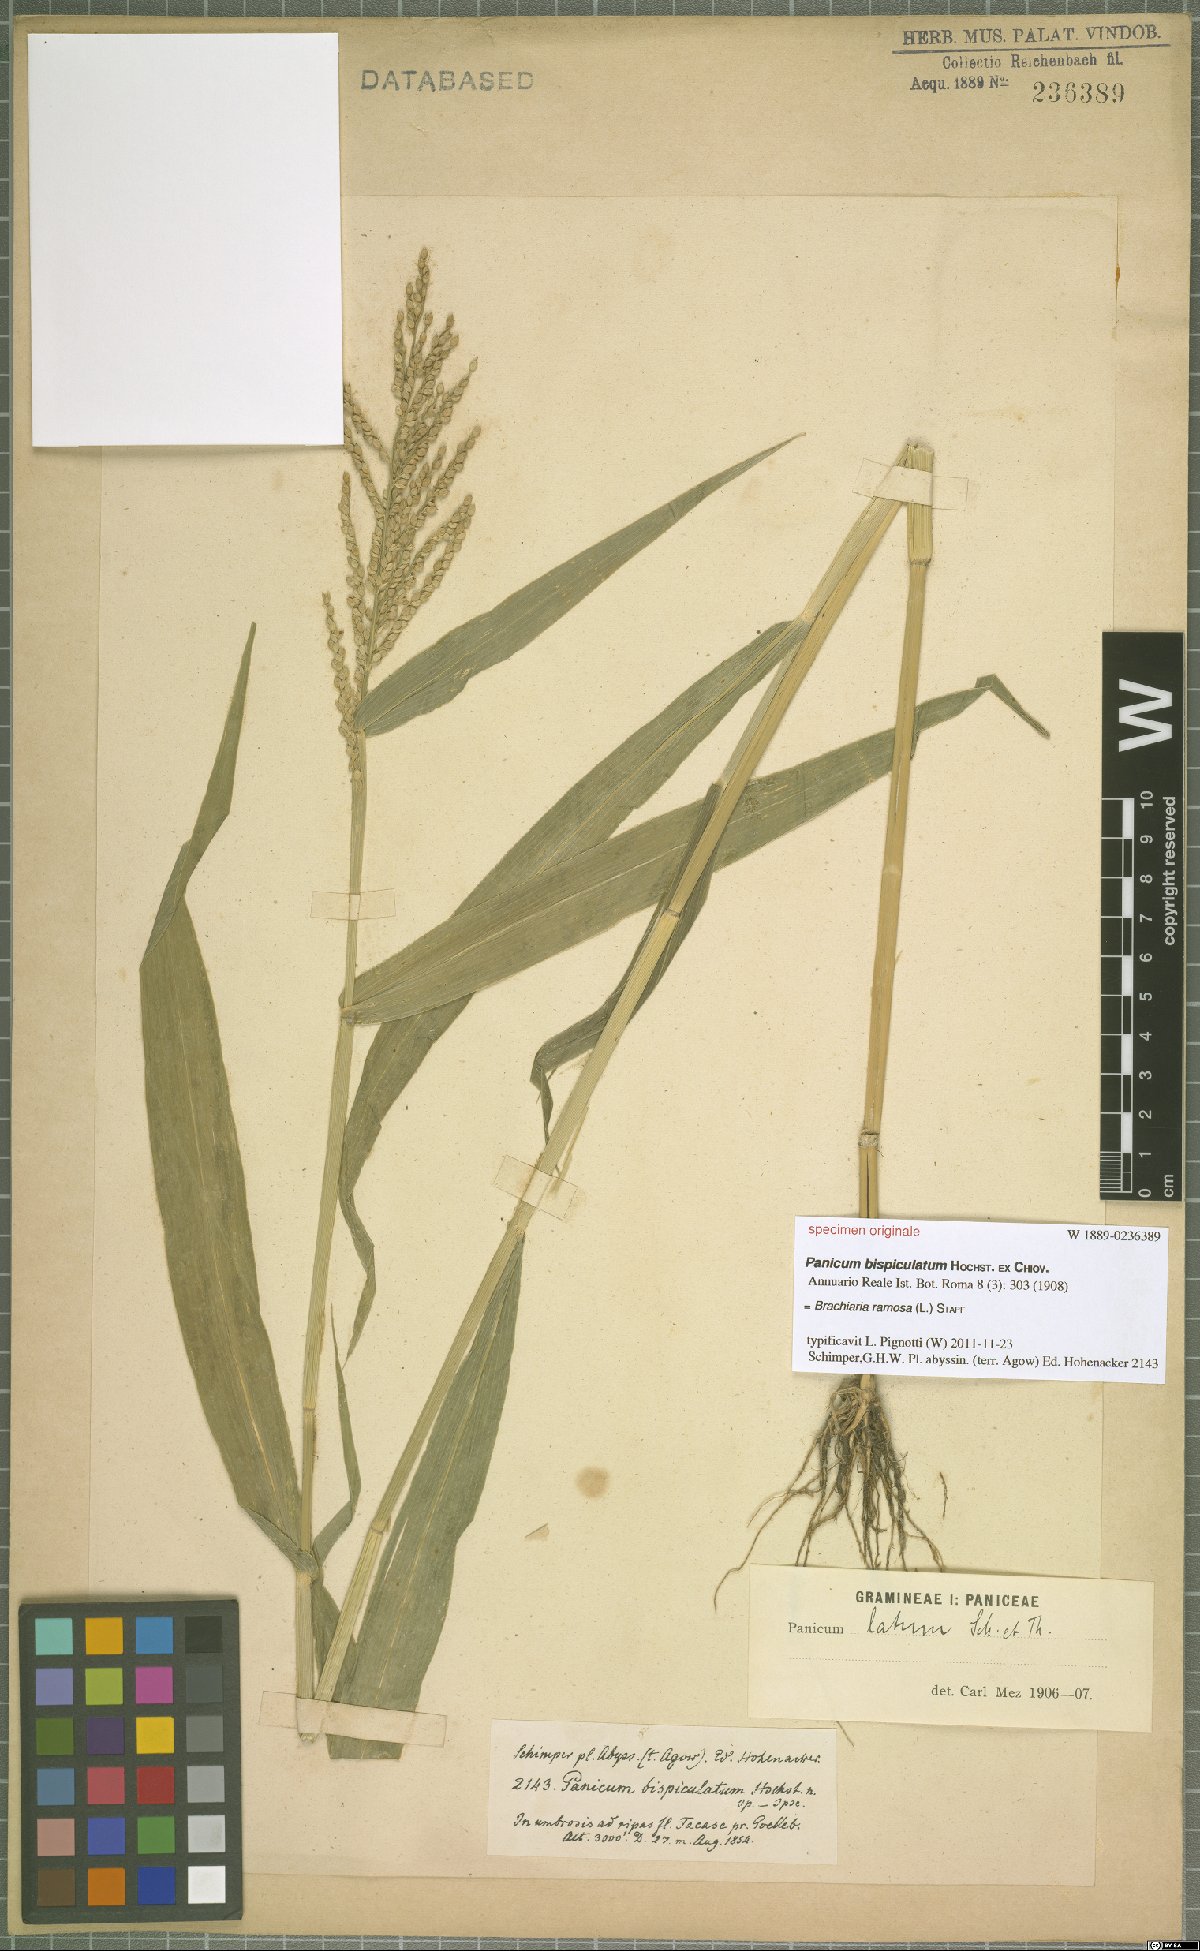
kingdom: Plantae
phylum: Tracheophyta
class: Liliopsida
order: Poales
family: Poaceae
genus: Urochloa
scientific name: Urochloa ramosa
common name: Browntop millet
